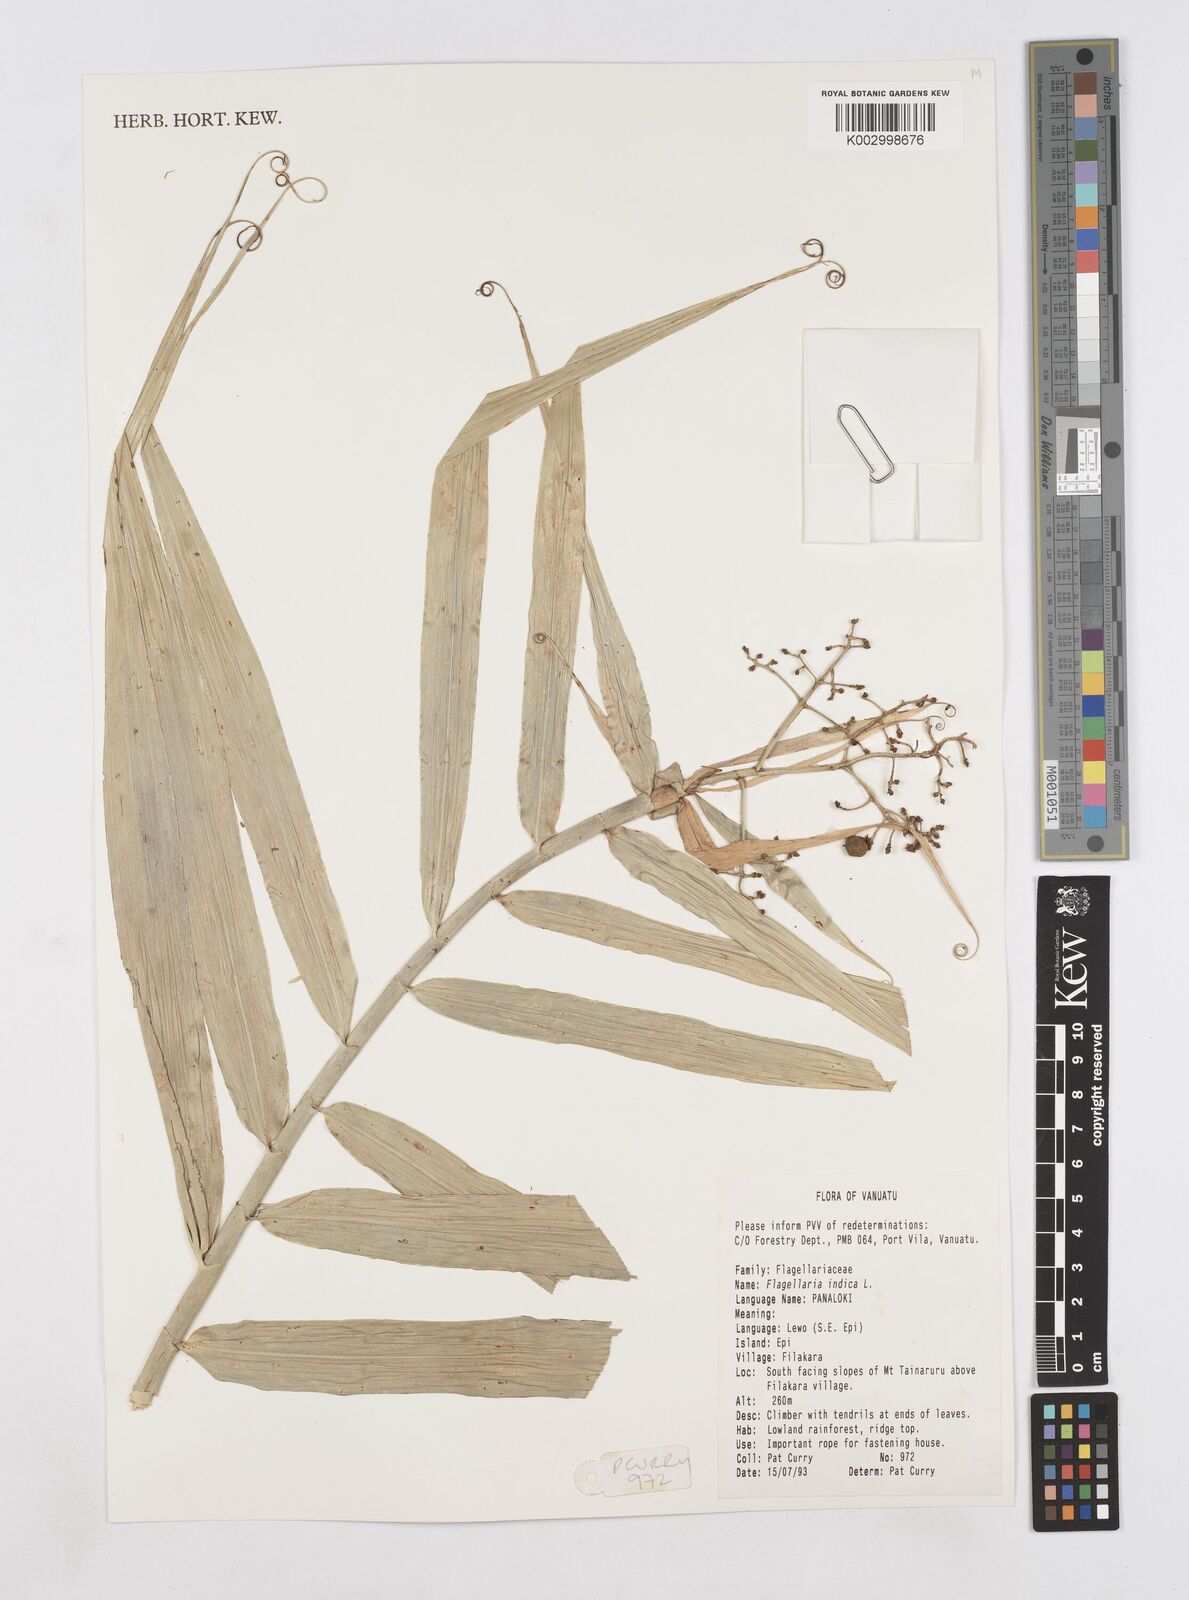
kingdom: Plantae
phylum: Tracheophyta
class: Liliopsida
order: Poales
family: Flagellariaceae
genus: Flagellaria
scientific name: Flagellaria indica
